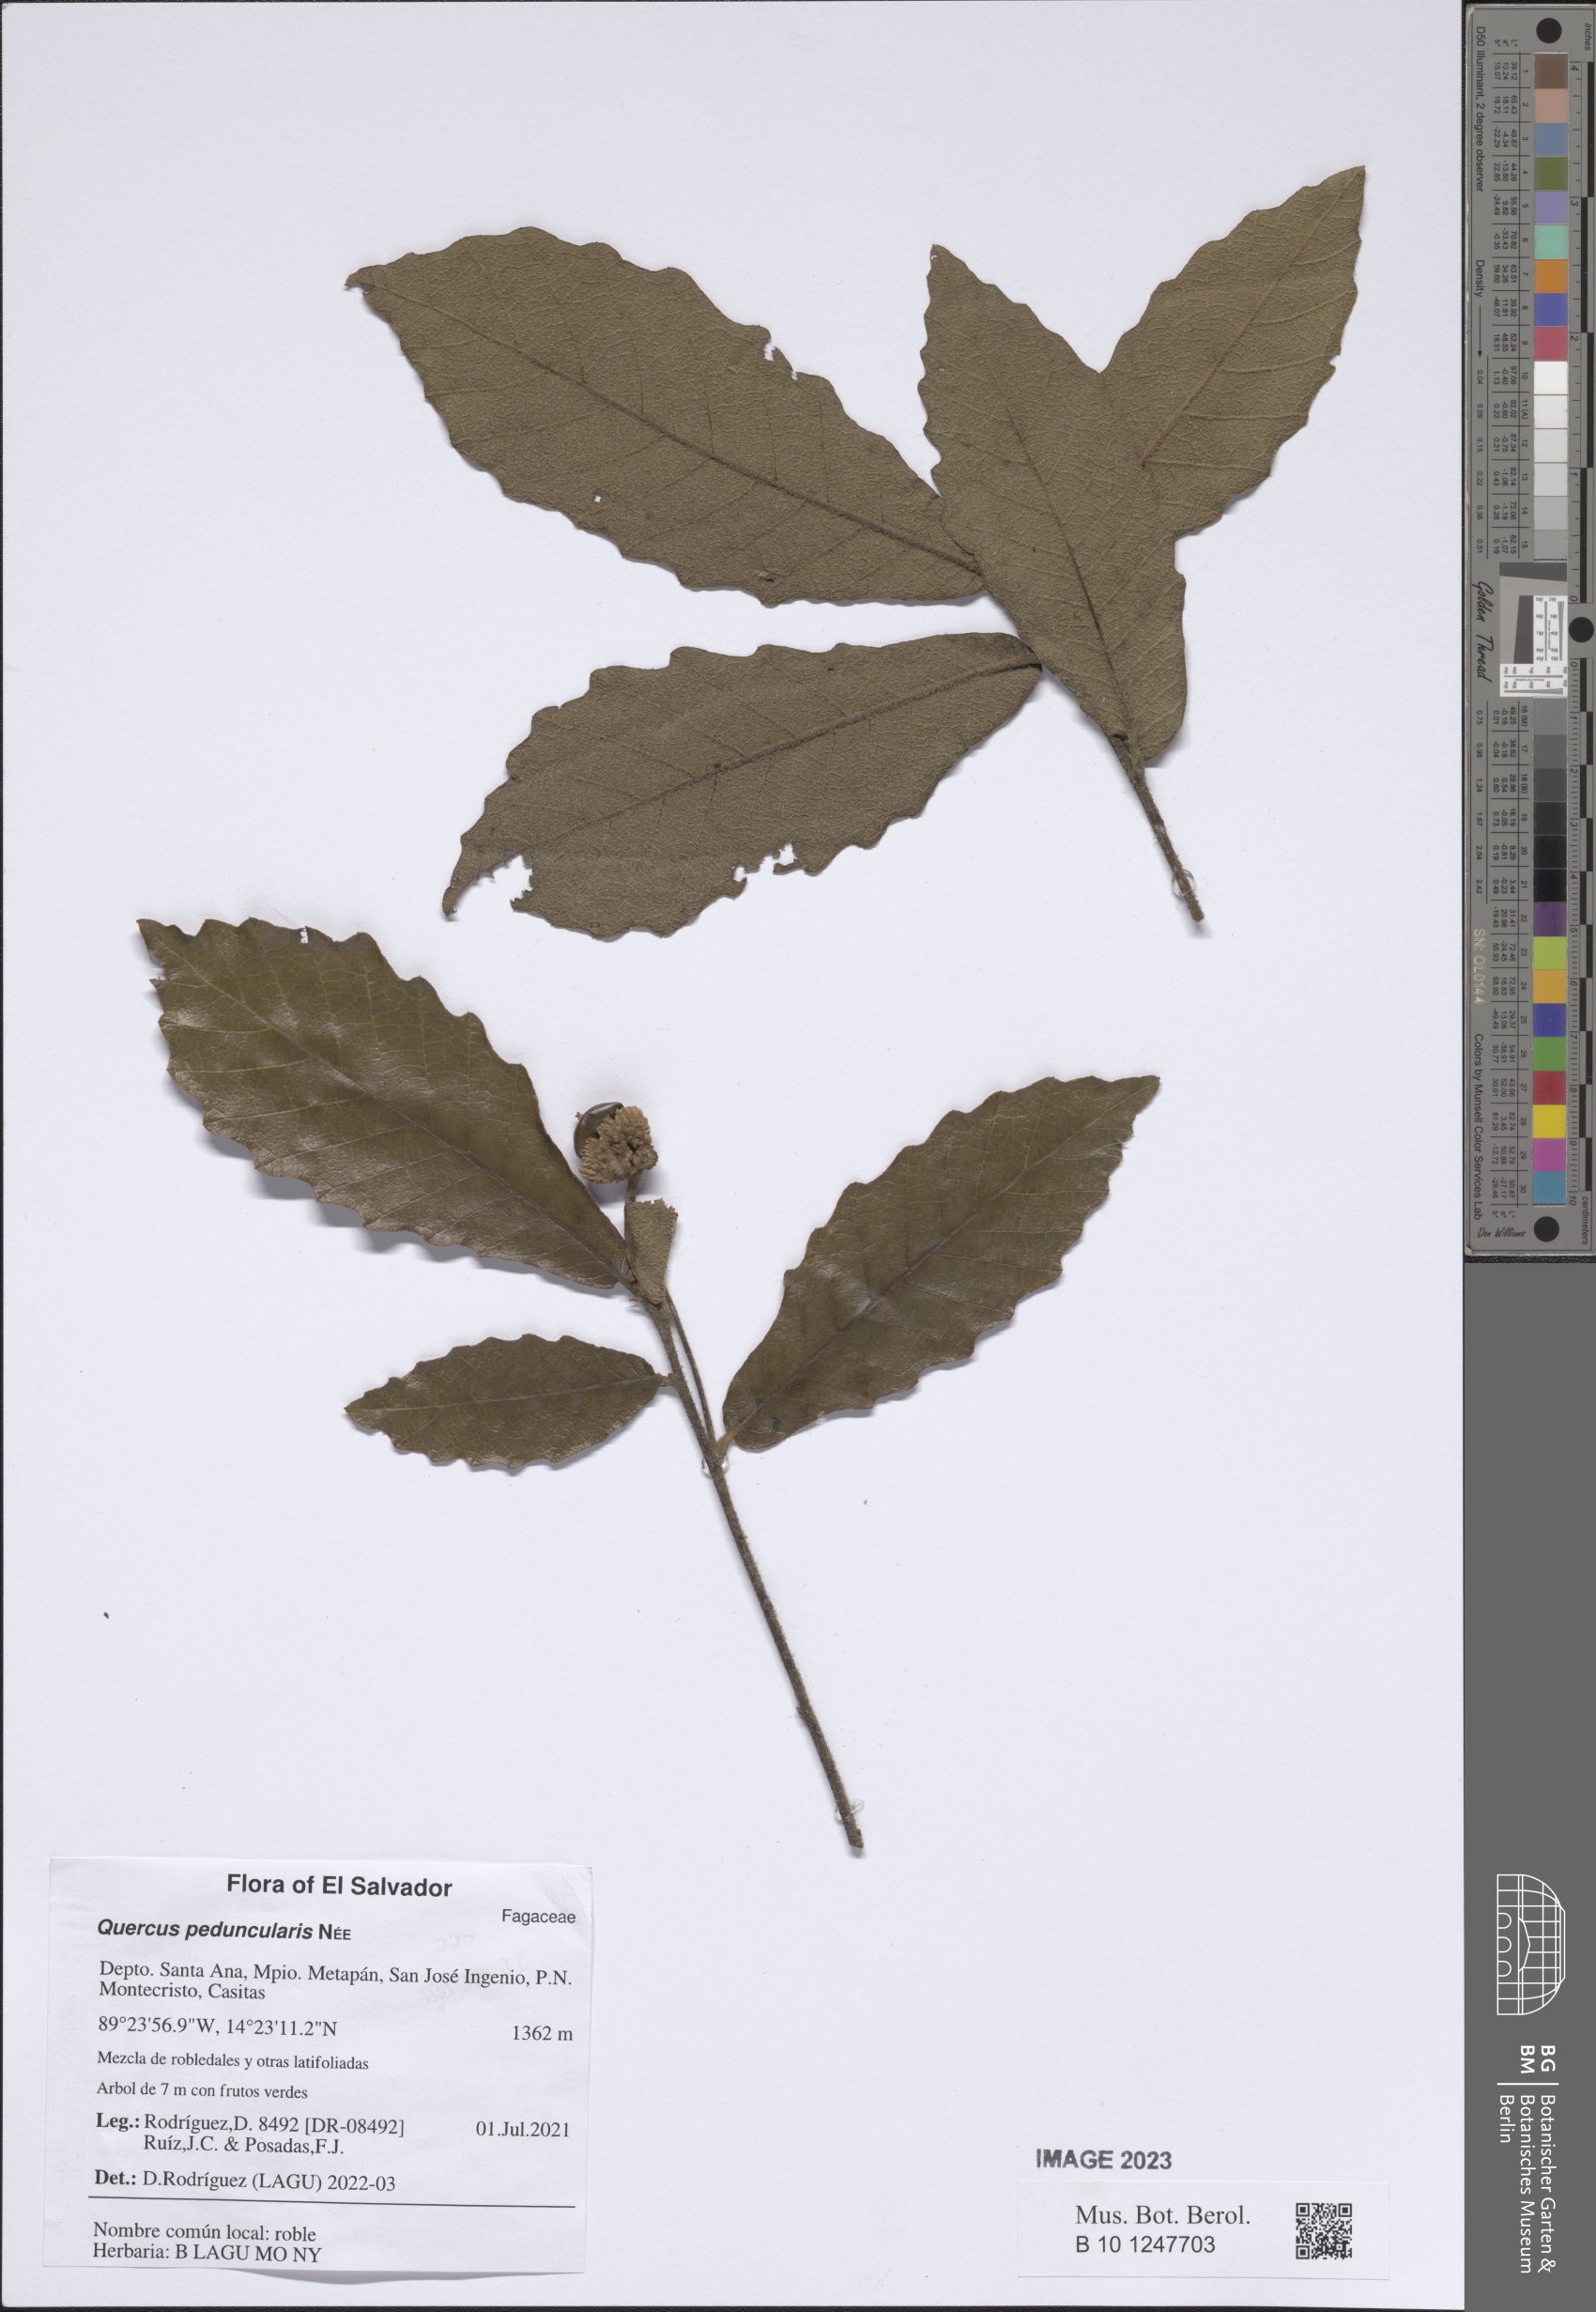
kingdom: Plantae
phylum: Tracheophyta
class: Magnoliopsida
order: Fagales
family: Fagaceae
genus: Quercus
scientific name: Quercus peduncularis
